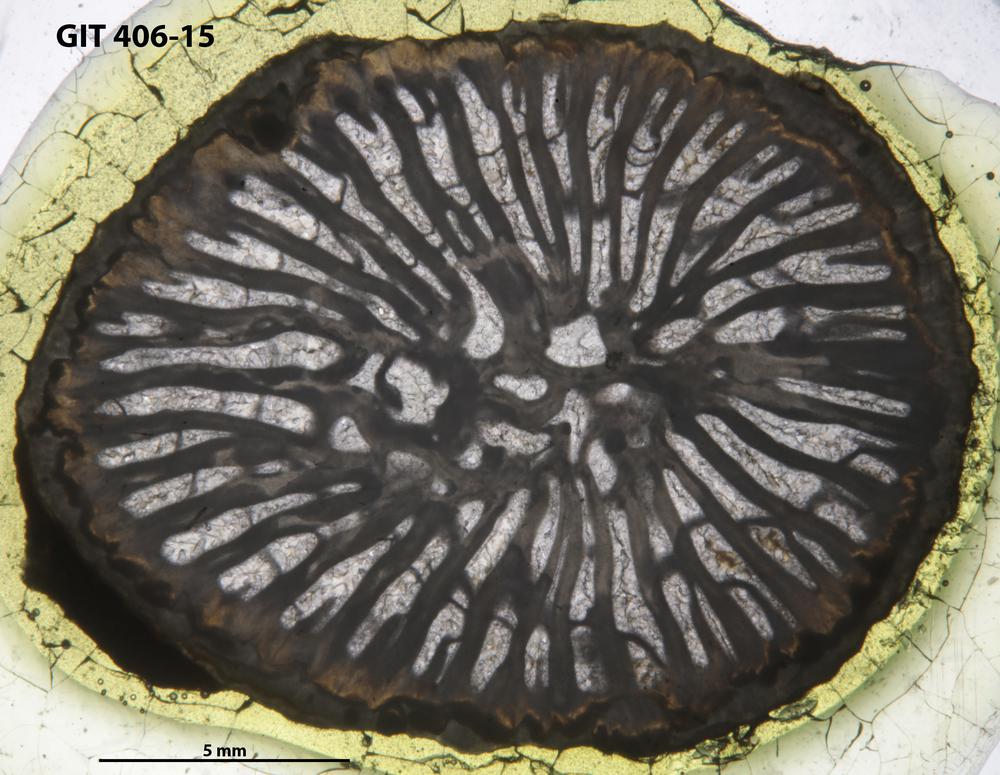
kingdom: Animalia
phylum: Cnidaria
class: Anthozoa
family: Streptelasmatidae
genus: Streptelasma
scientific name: Streptelasma Brachyelasma hiumica
